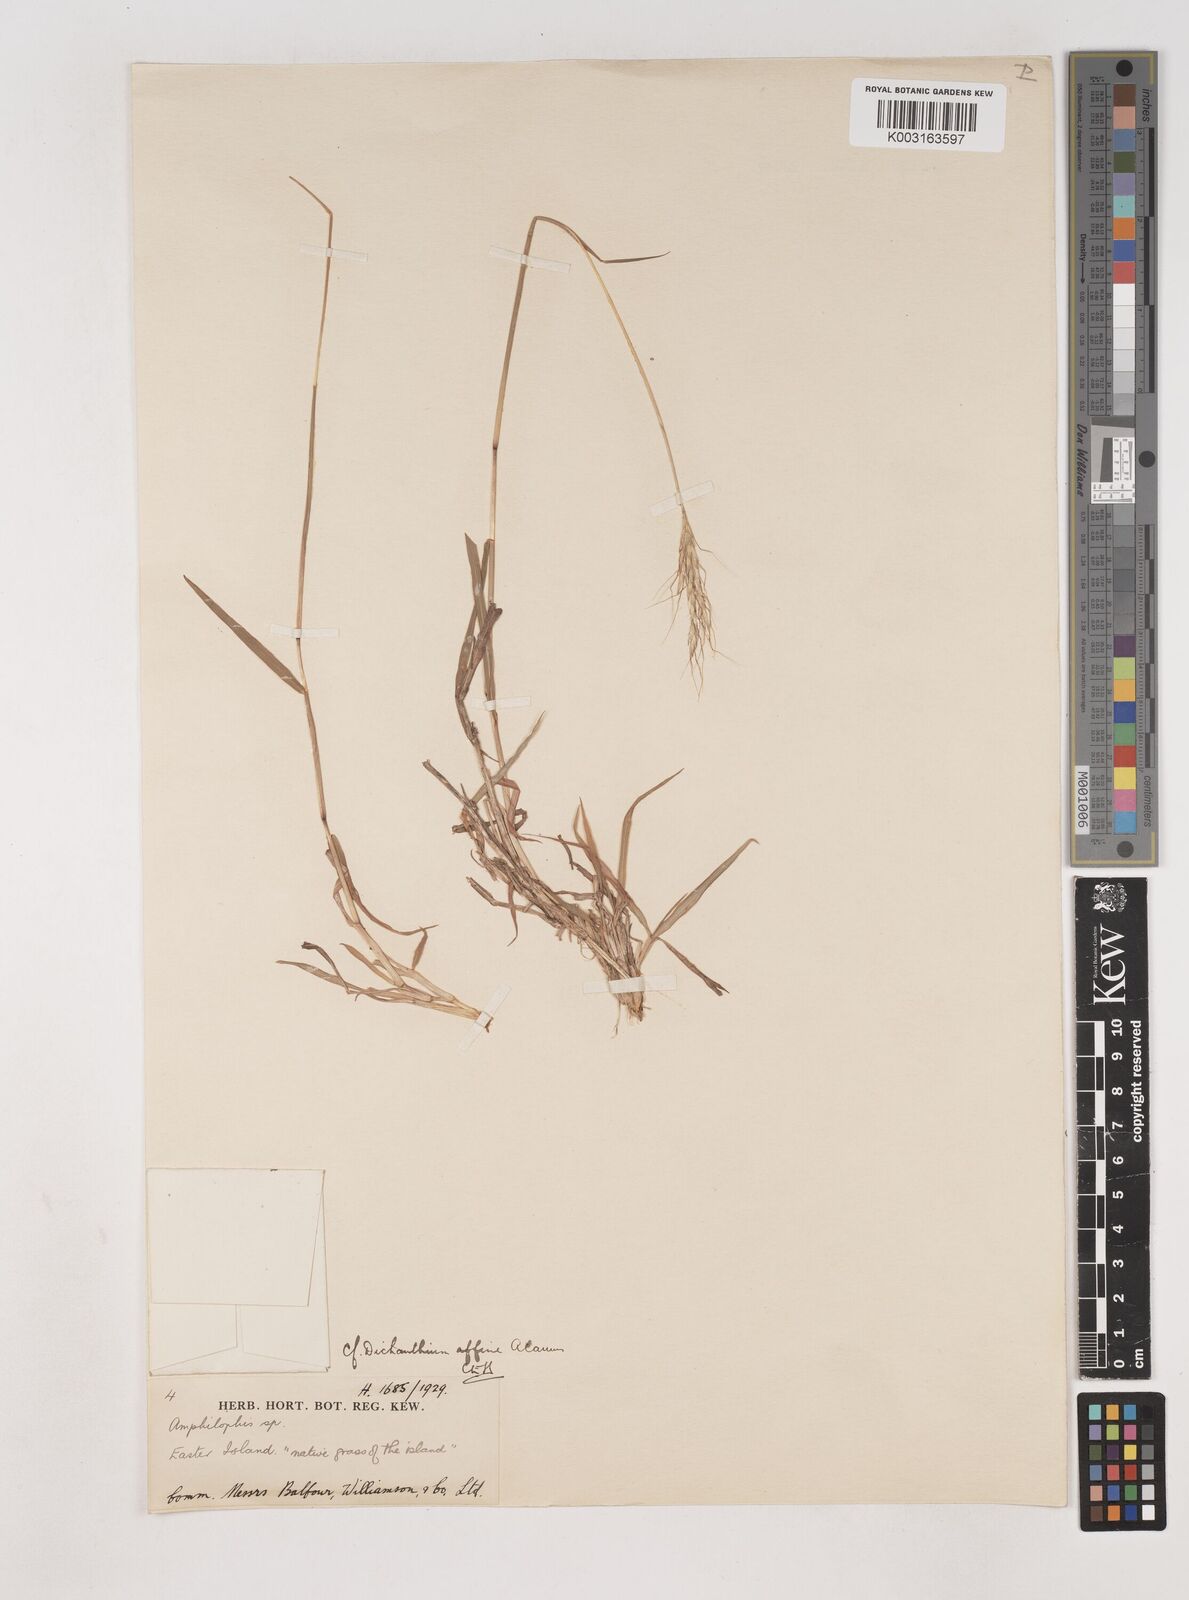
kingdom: Plantae
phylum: Tracheophyta
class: Liliopsida
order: Poales
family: Poaceae
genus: Dichanthium
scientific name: Dichanthium annulatum
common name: Kleberg's bluestem
